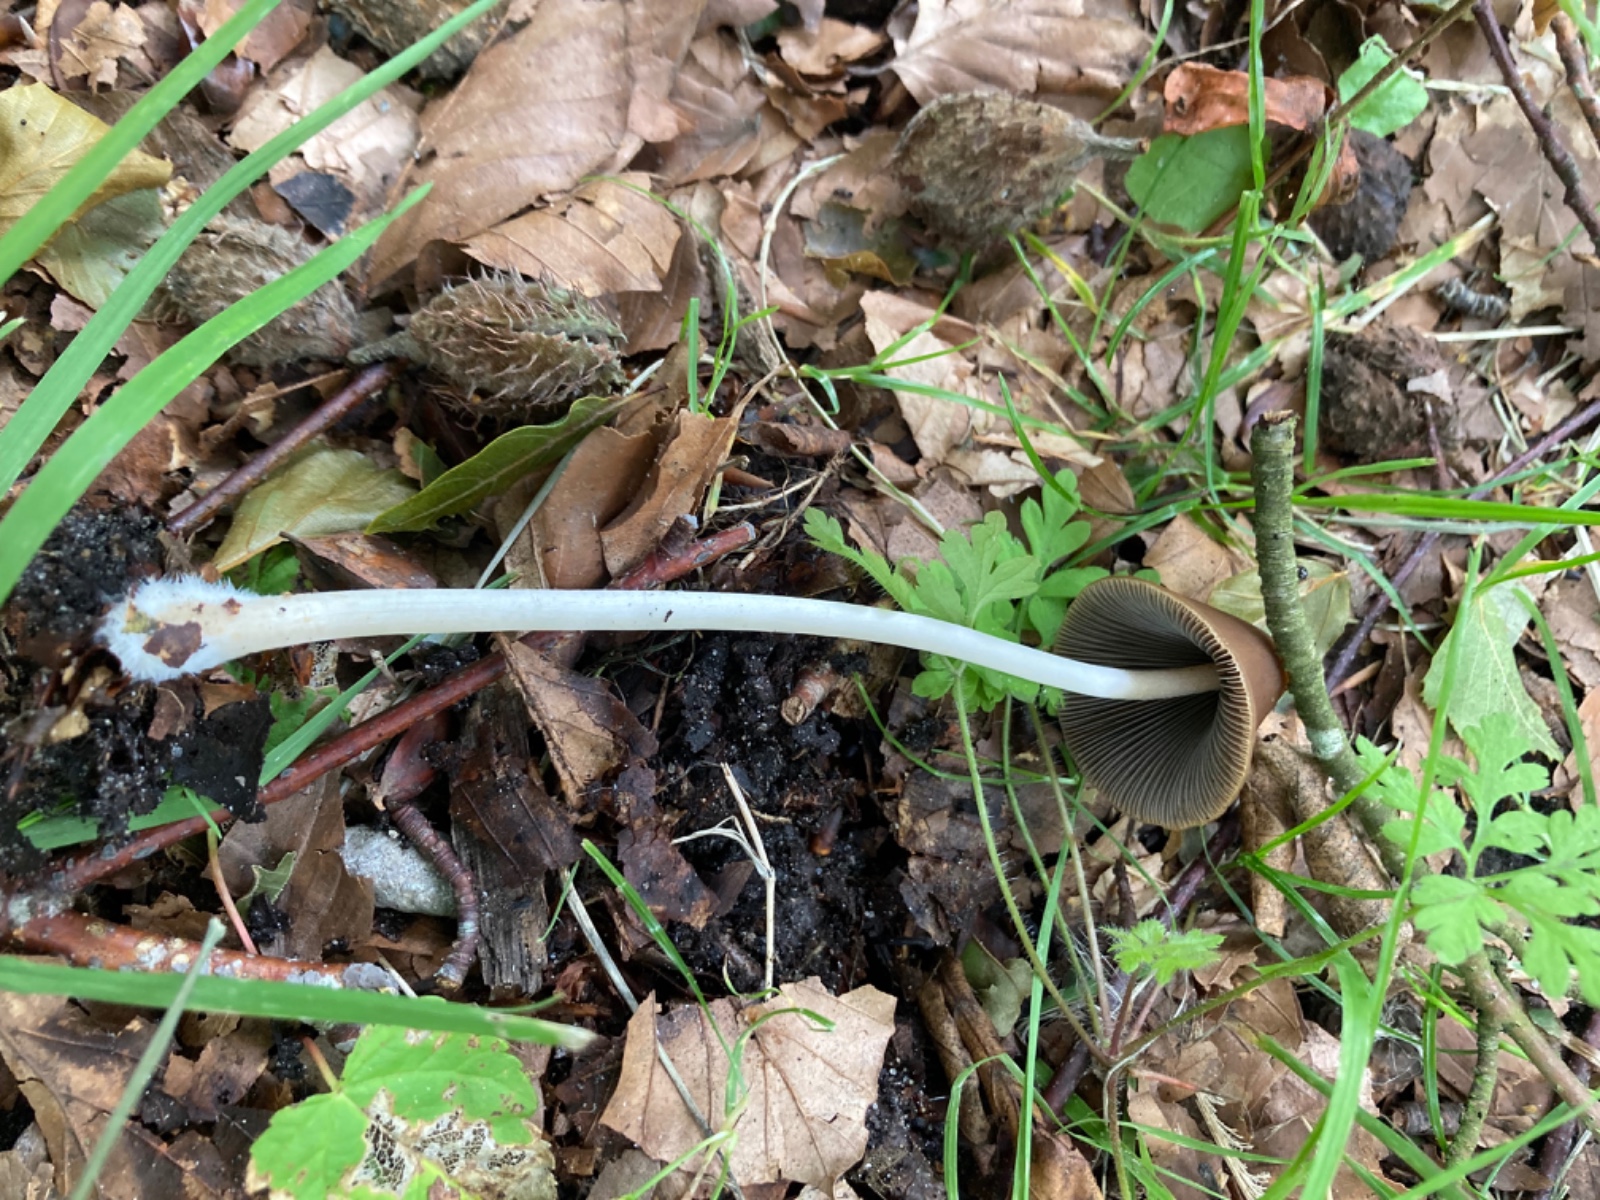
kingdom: Fungi
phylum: Basidiomycota
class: Agaricomycetes
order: Agaricales
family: Psathyrellaceae
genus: Parasola
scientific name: Parasola conopilea
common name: kegle-hjulhat
